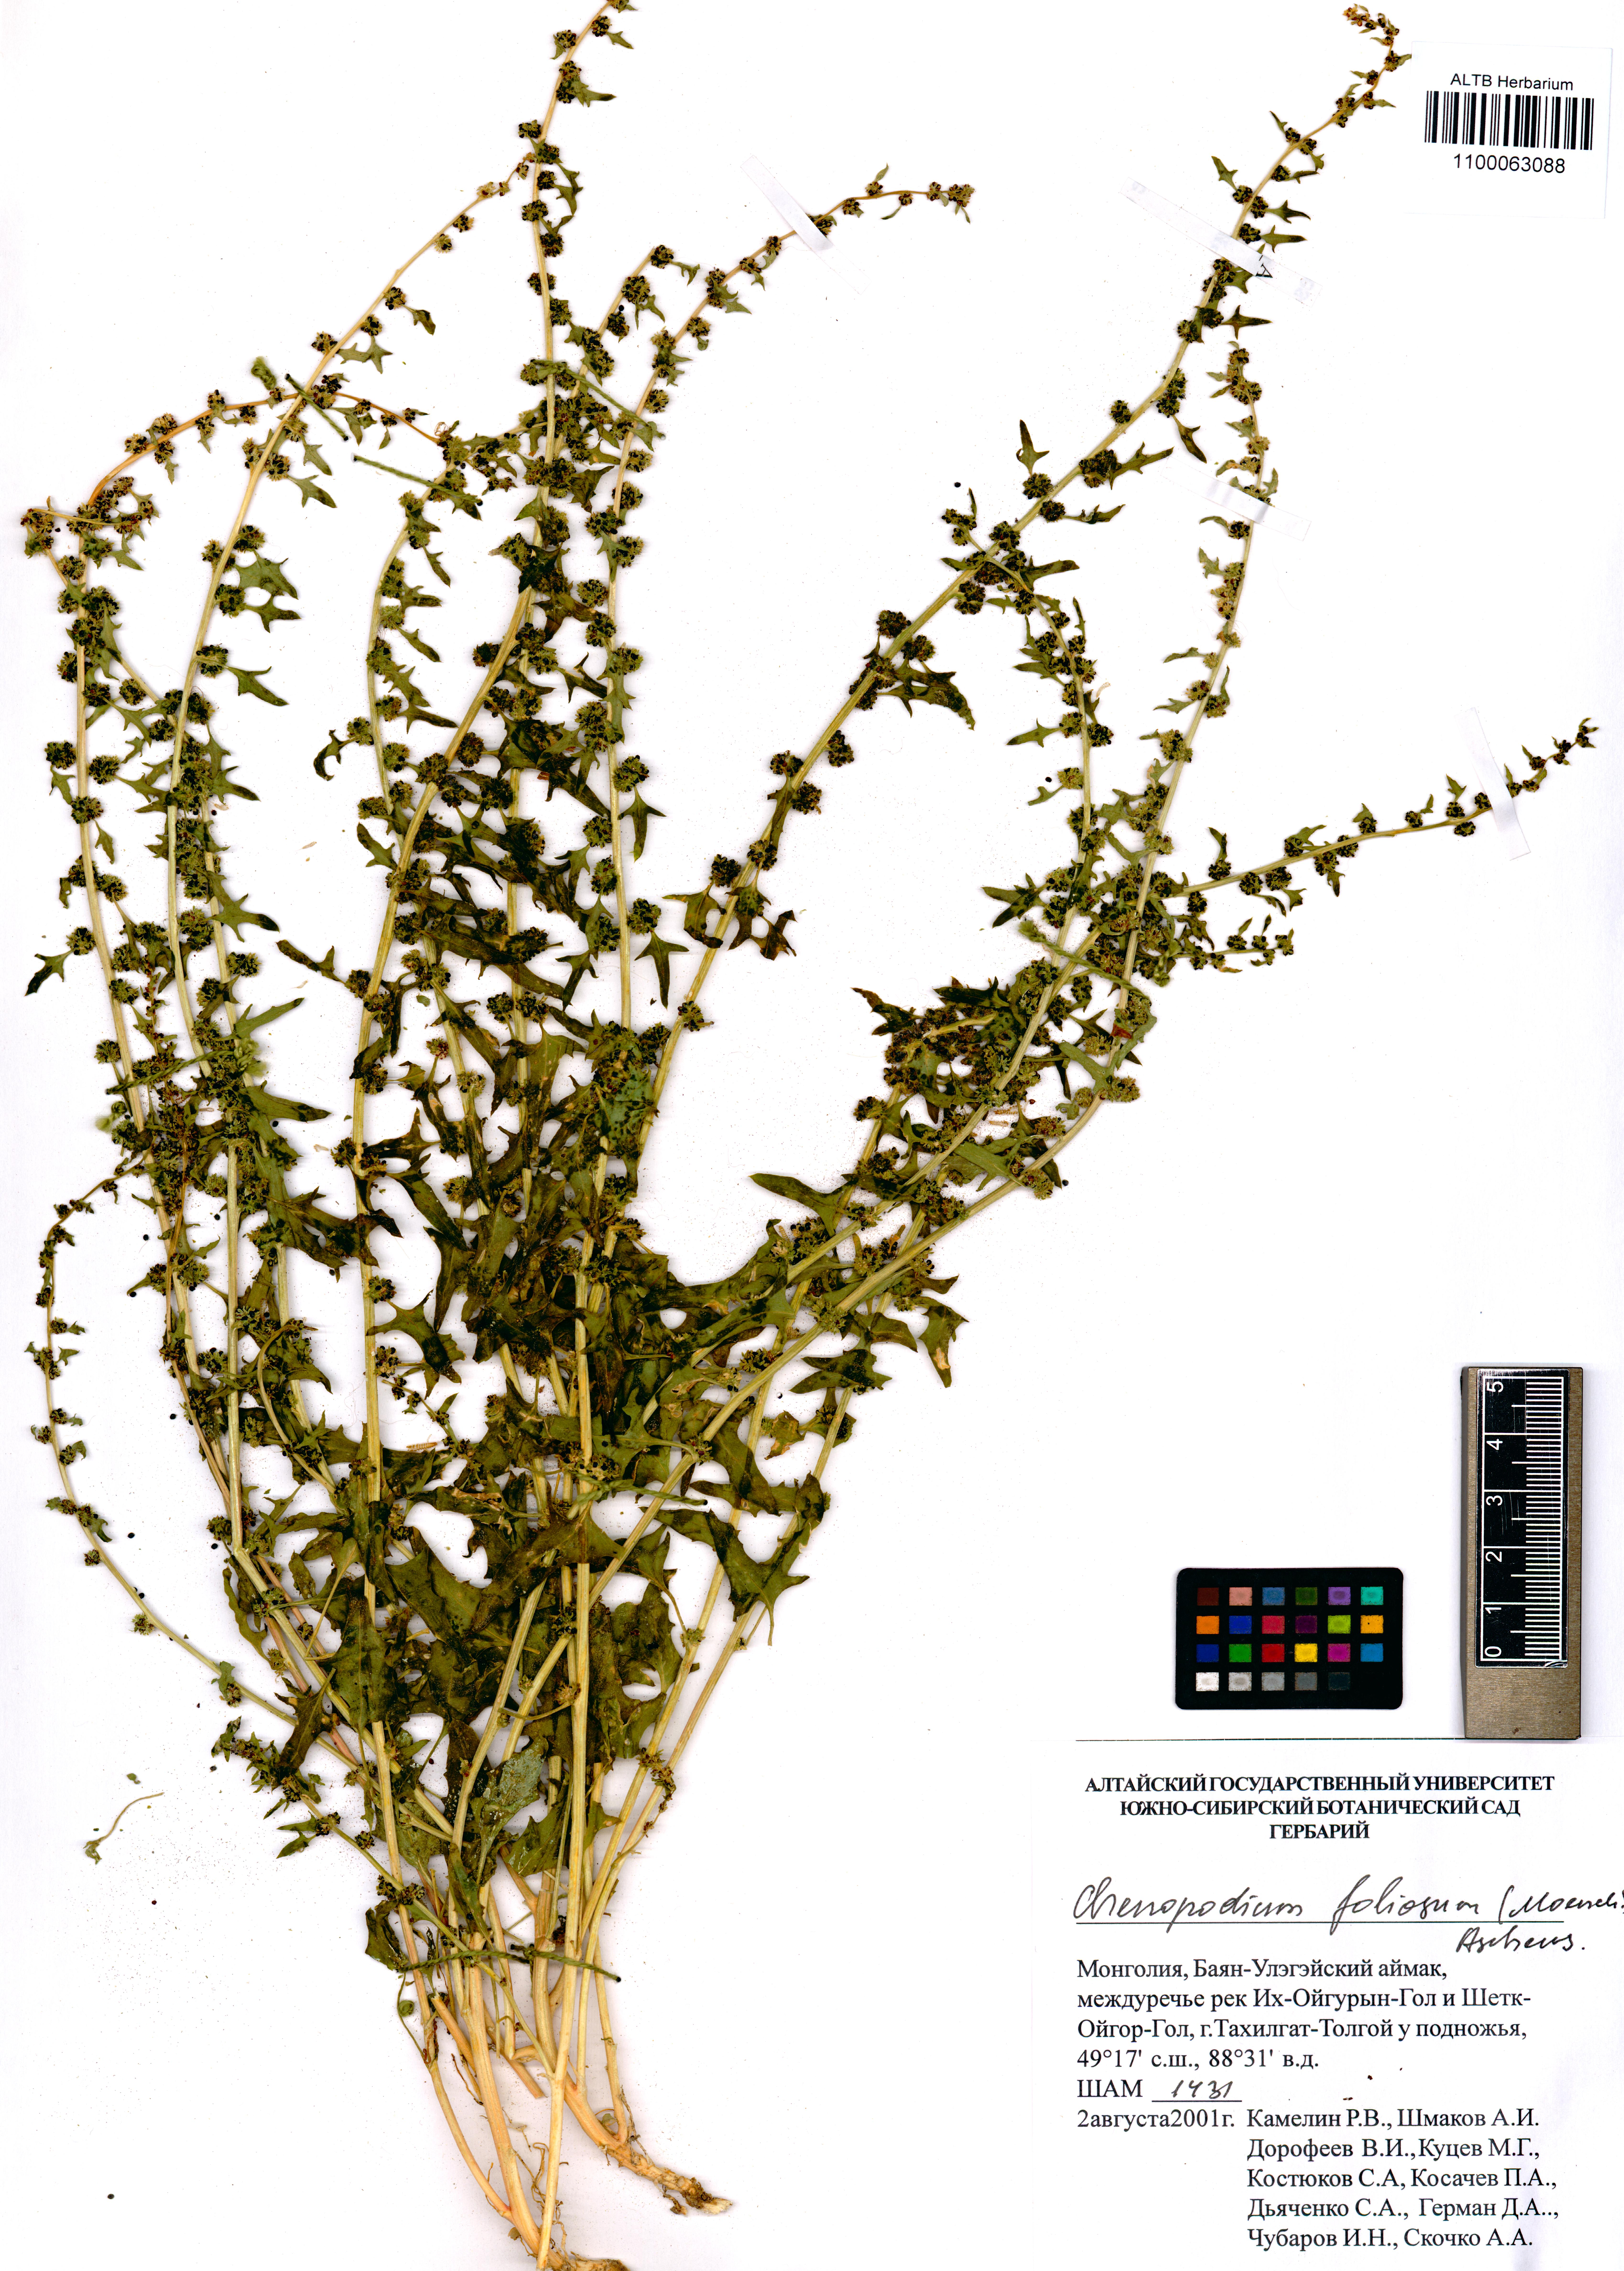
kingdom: Plantae
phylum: Tracheophyta
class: Magnoliopsida
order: Caryophyllales
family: Amaranthaceae
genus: Blitum
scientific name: Blitum virgatum
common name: Strawberry goosefoot
